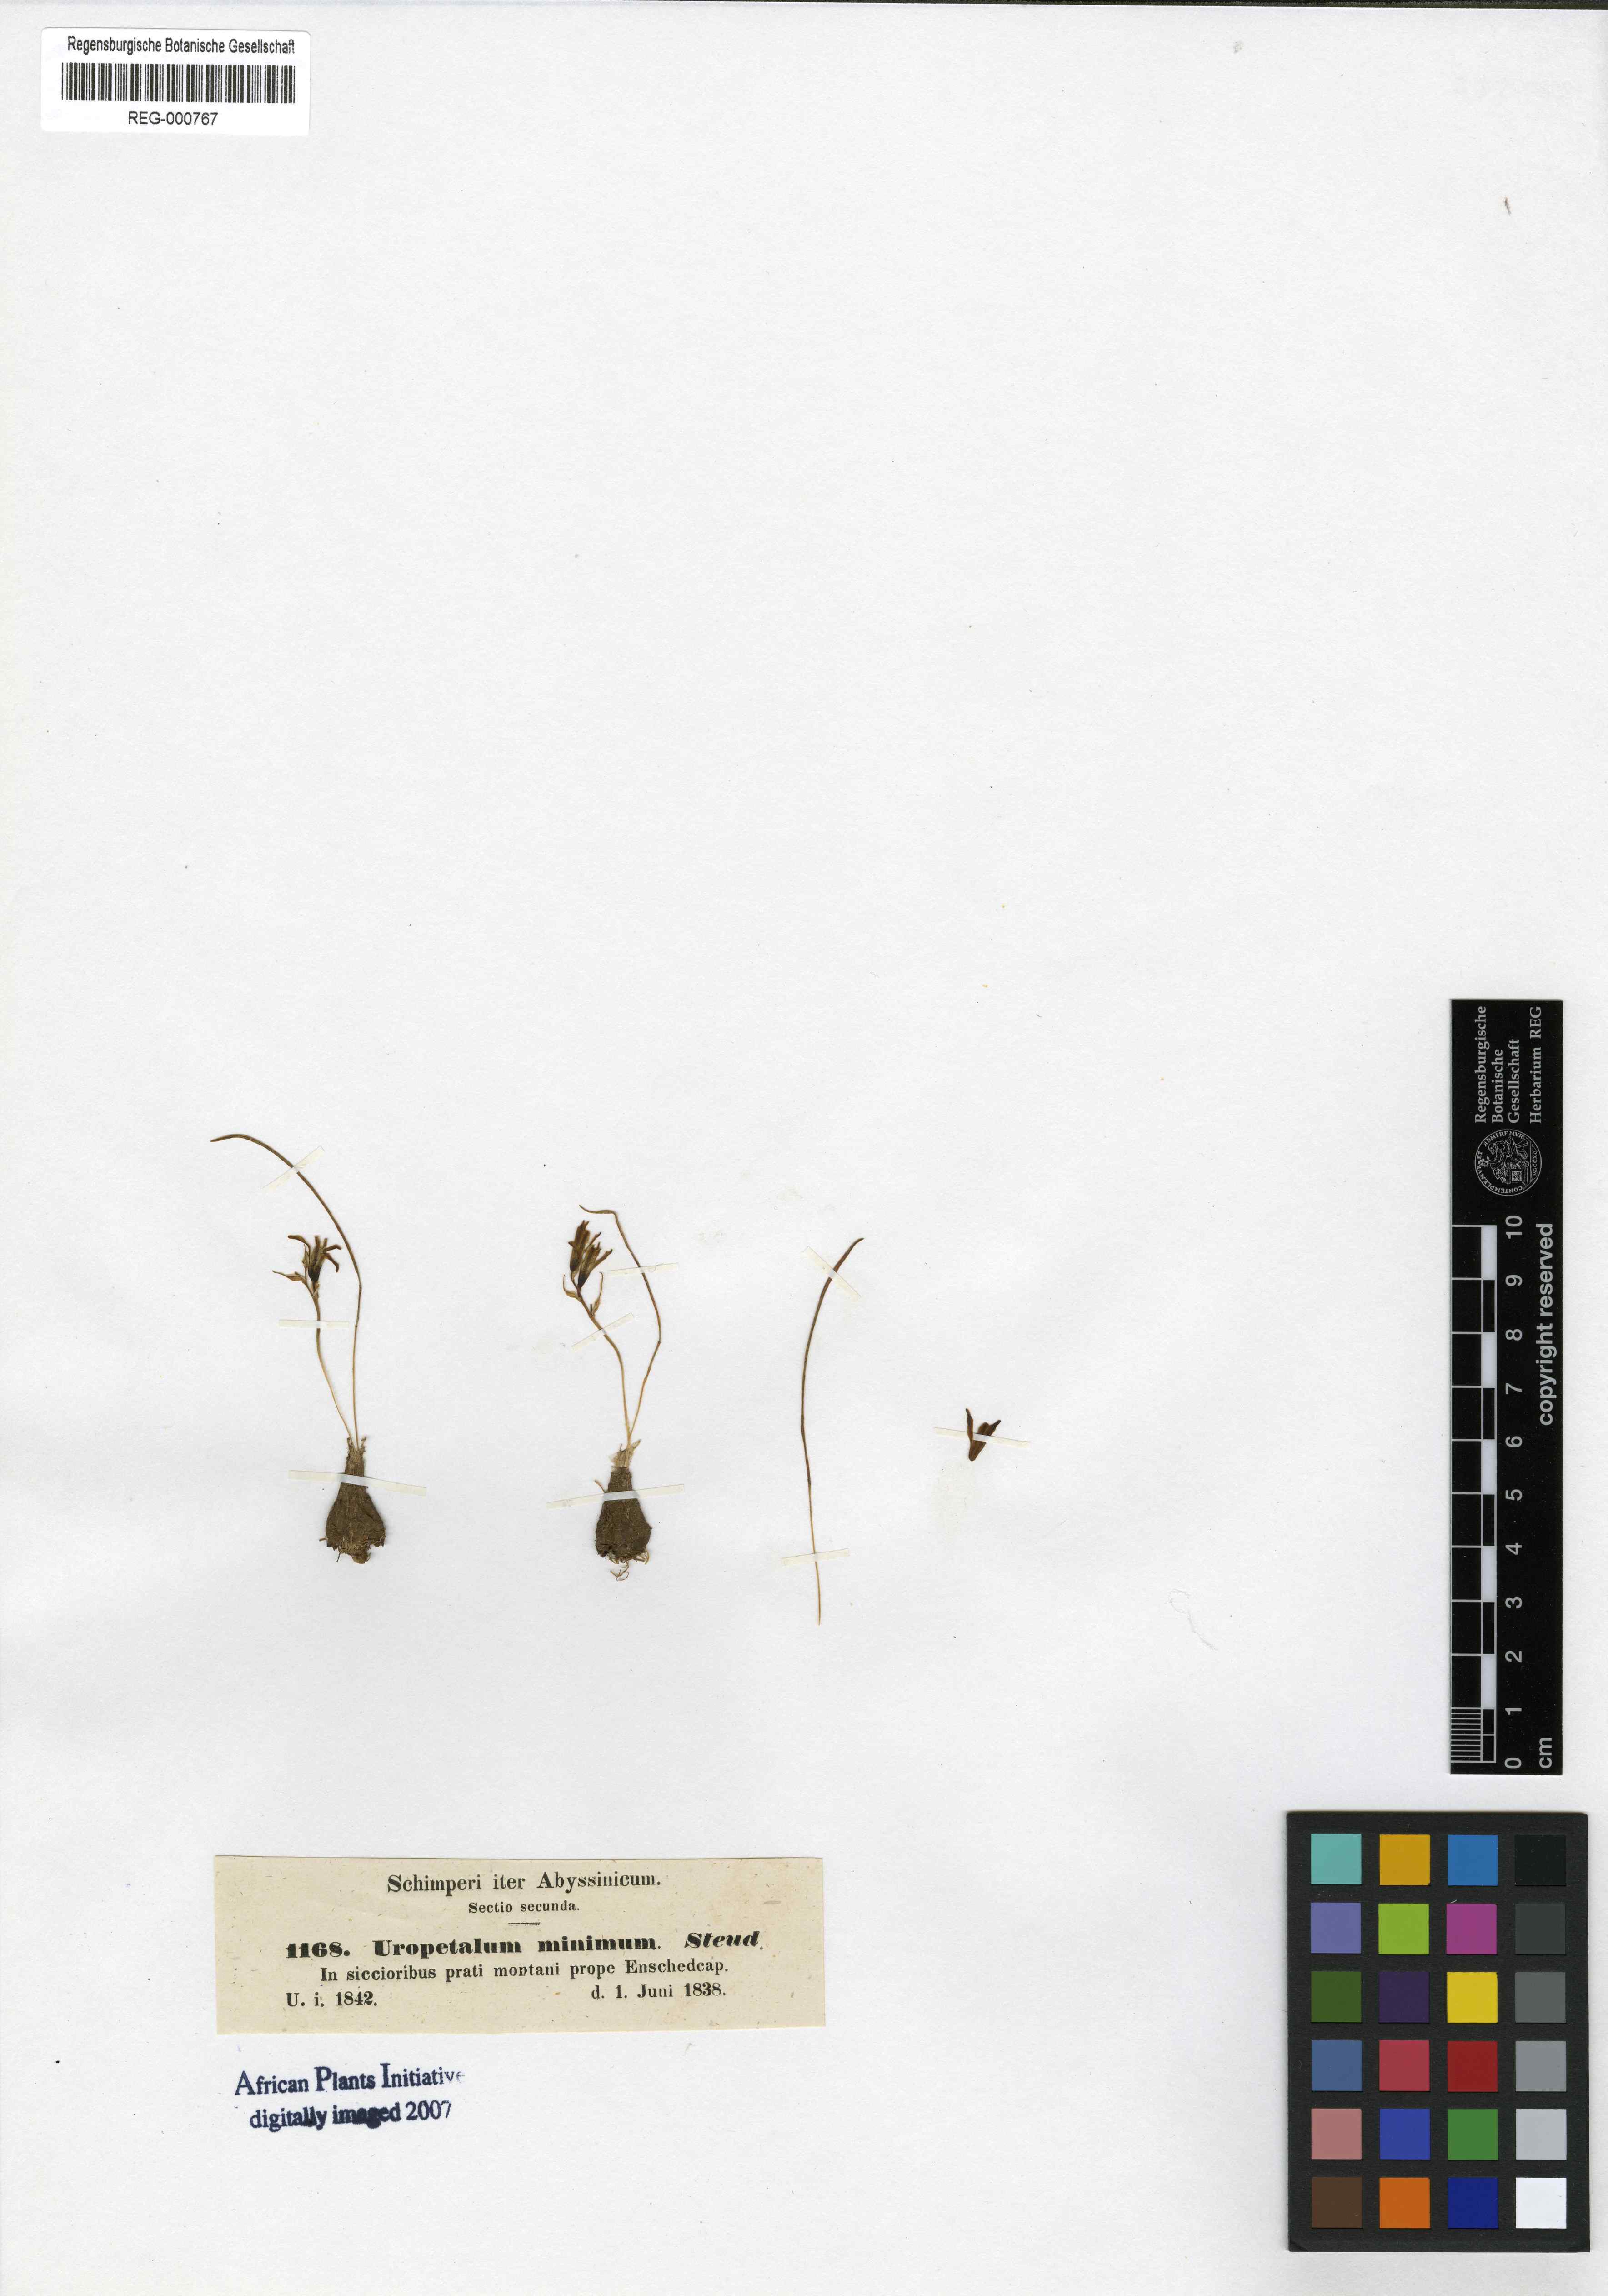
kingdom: Plantae
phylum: Tracheophyta
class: Liliopsida
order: Asparagales
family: Asparagaceae
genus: Ornithogalum
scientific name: Ornithogalum Uropetalon minimum
